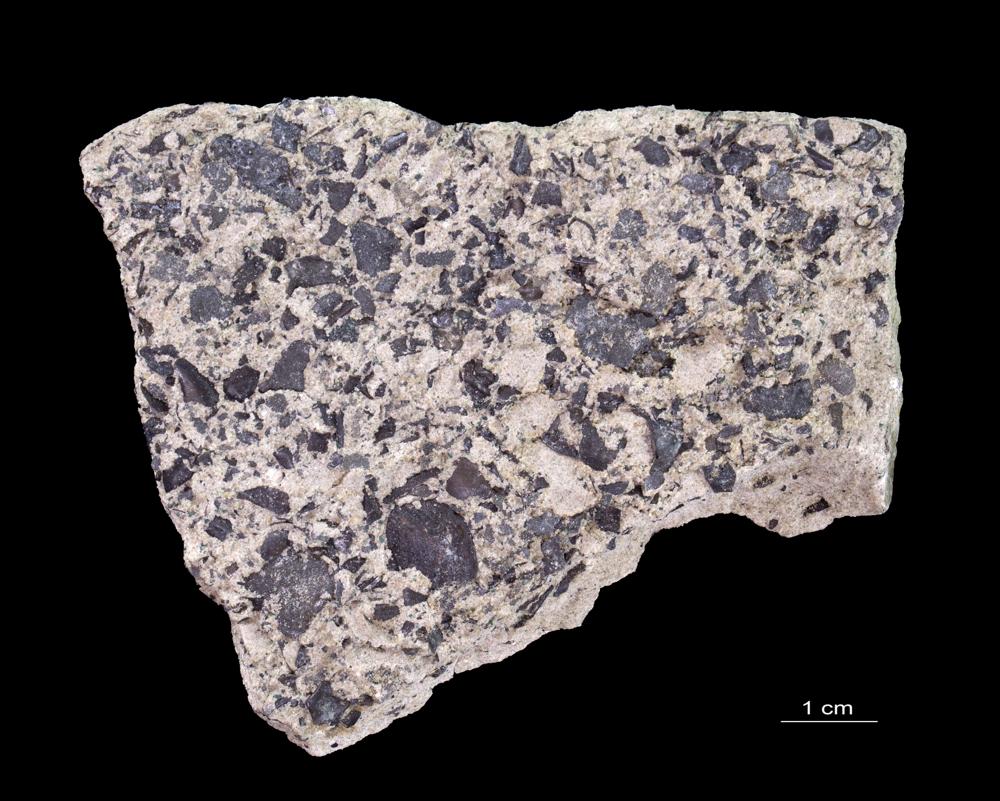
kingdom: Animalia
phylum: Brachiopoda
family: Paterinidae
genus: Mickwitzia
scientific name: Mickwitzia
